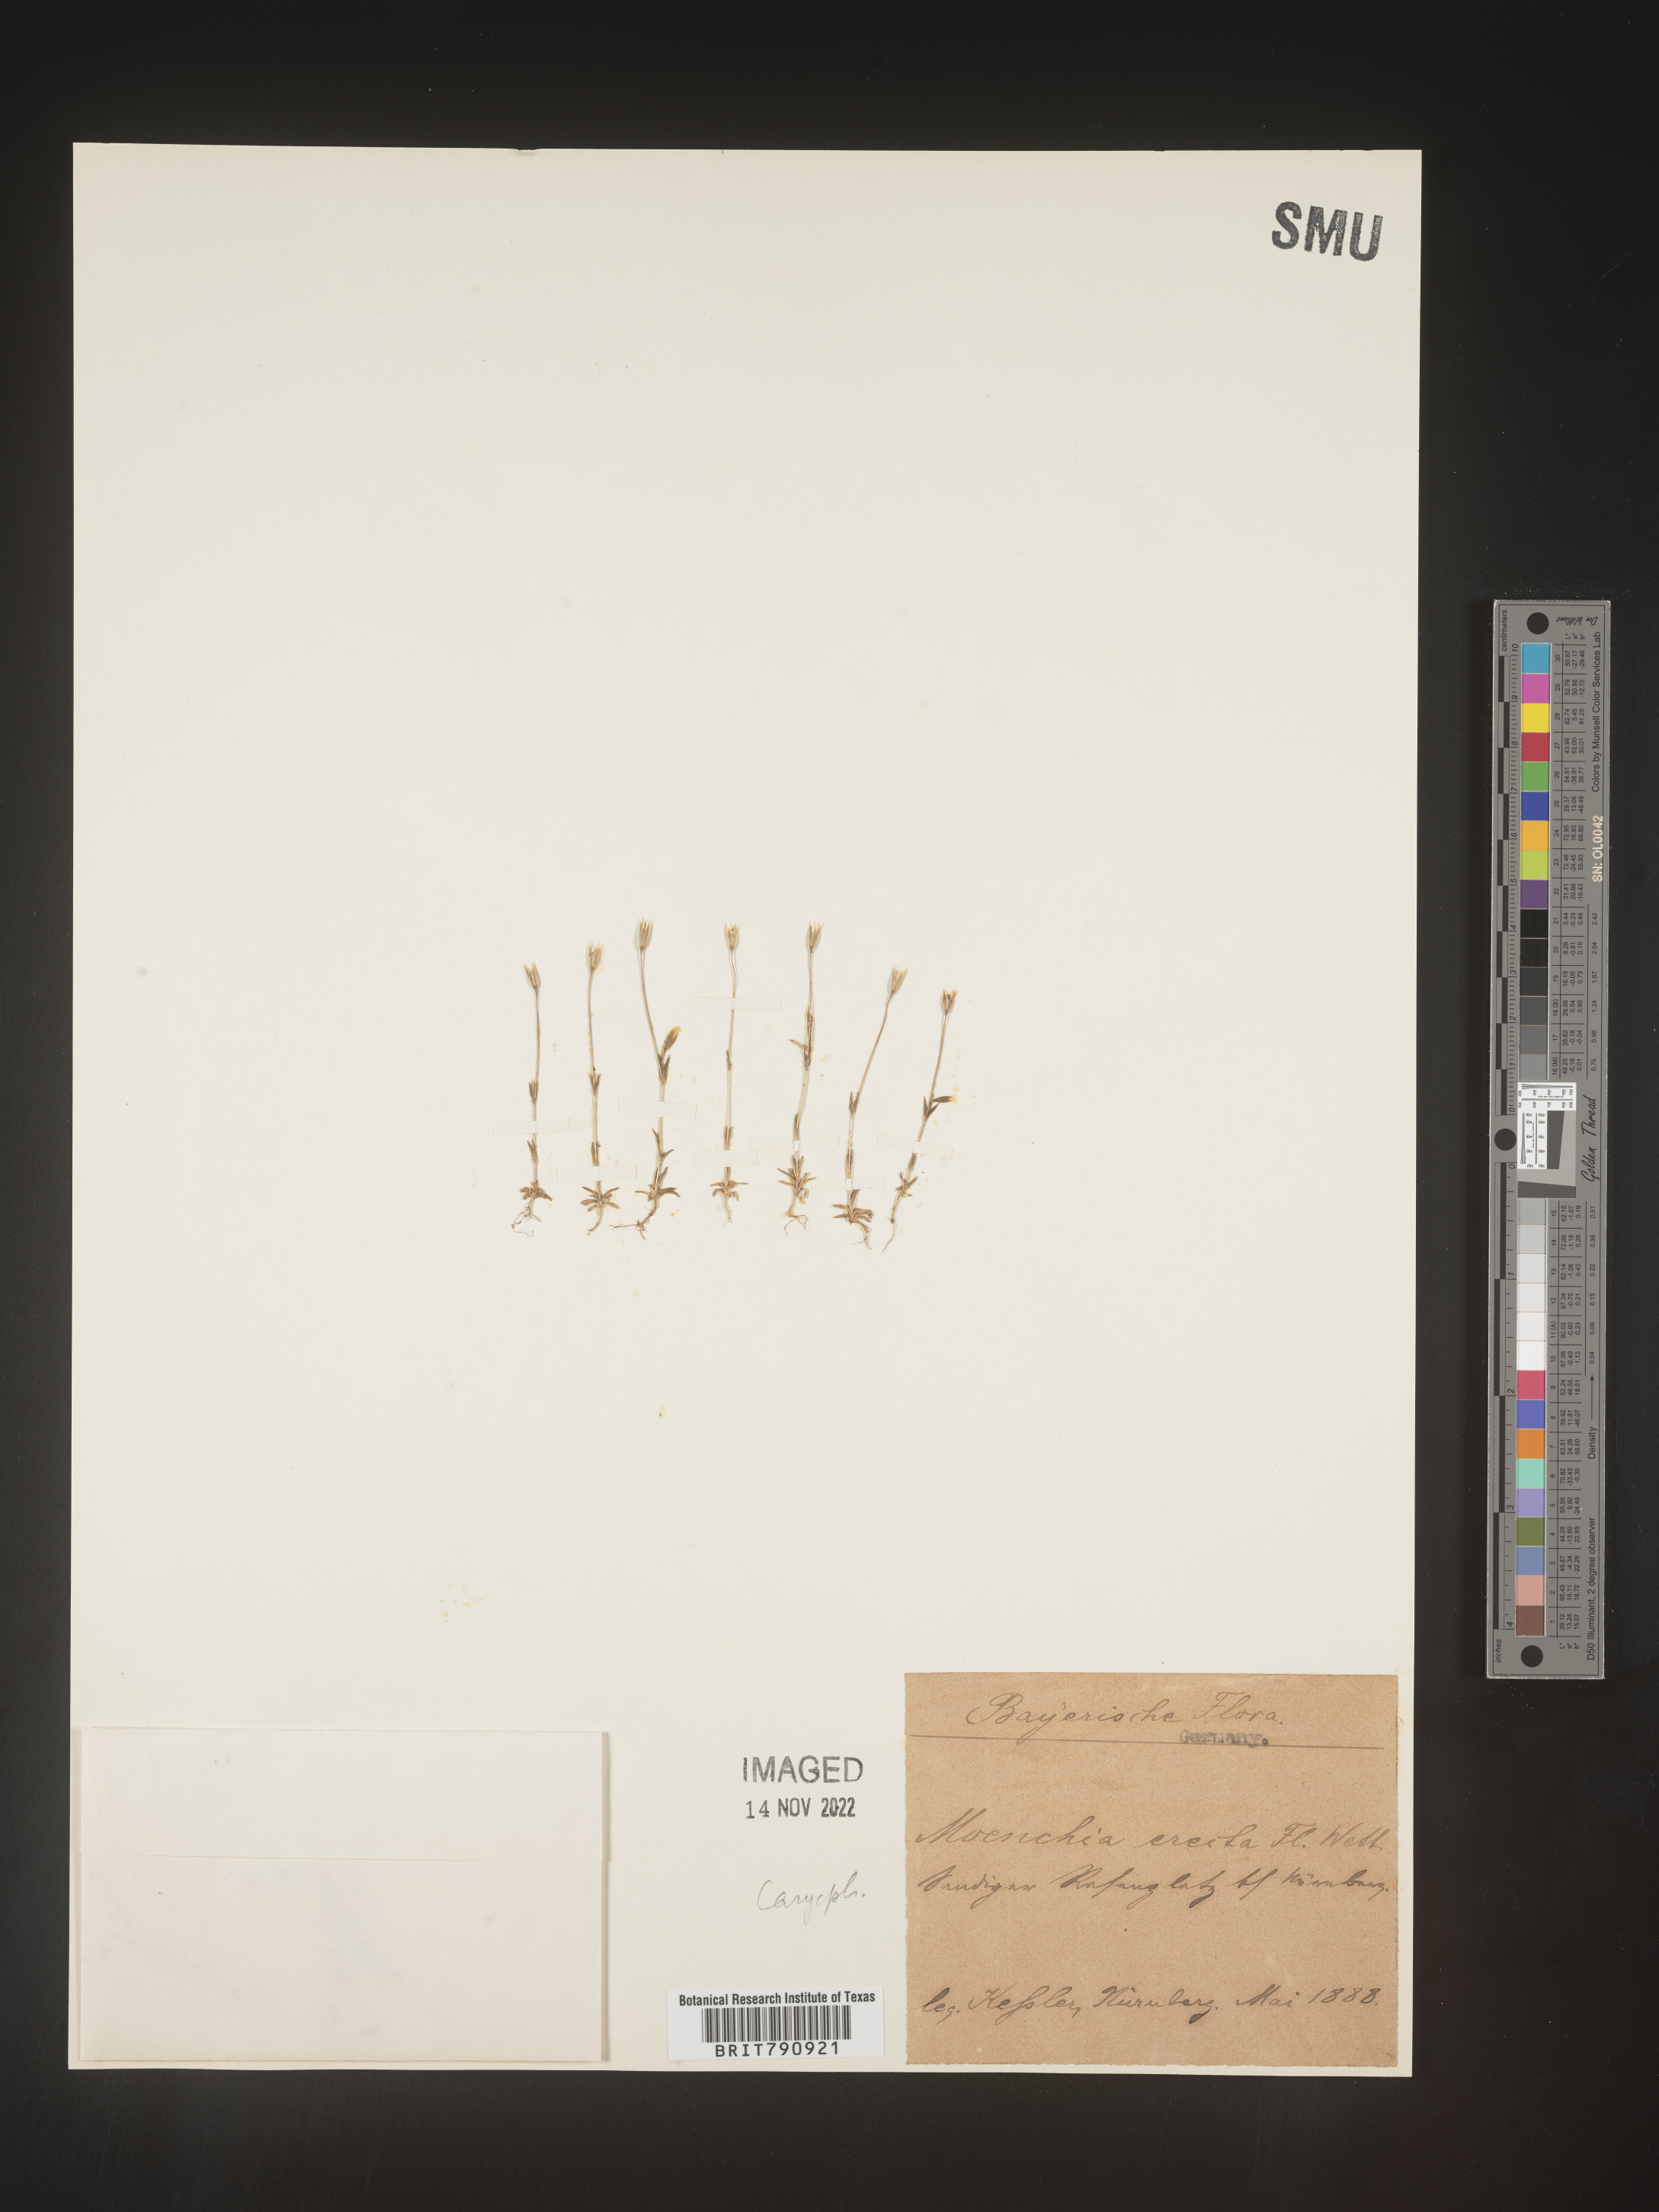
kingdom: Plantae
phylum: Tracheophyta
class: Magnoliopsida
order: Caryophyllales
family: Caryophyllaceae
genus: Moenchia
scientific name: Moenchia
